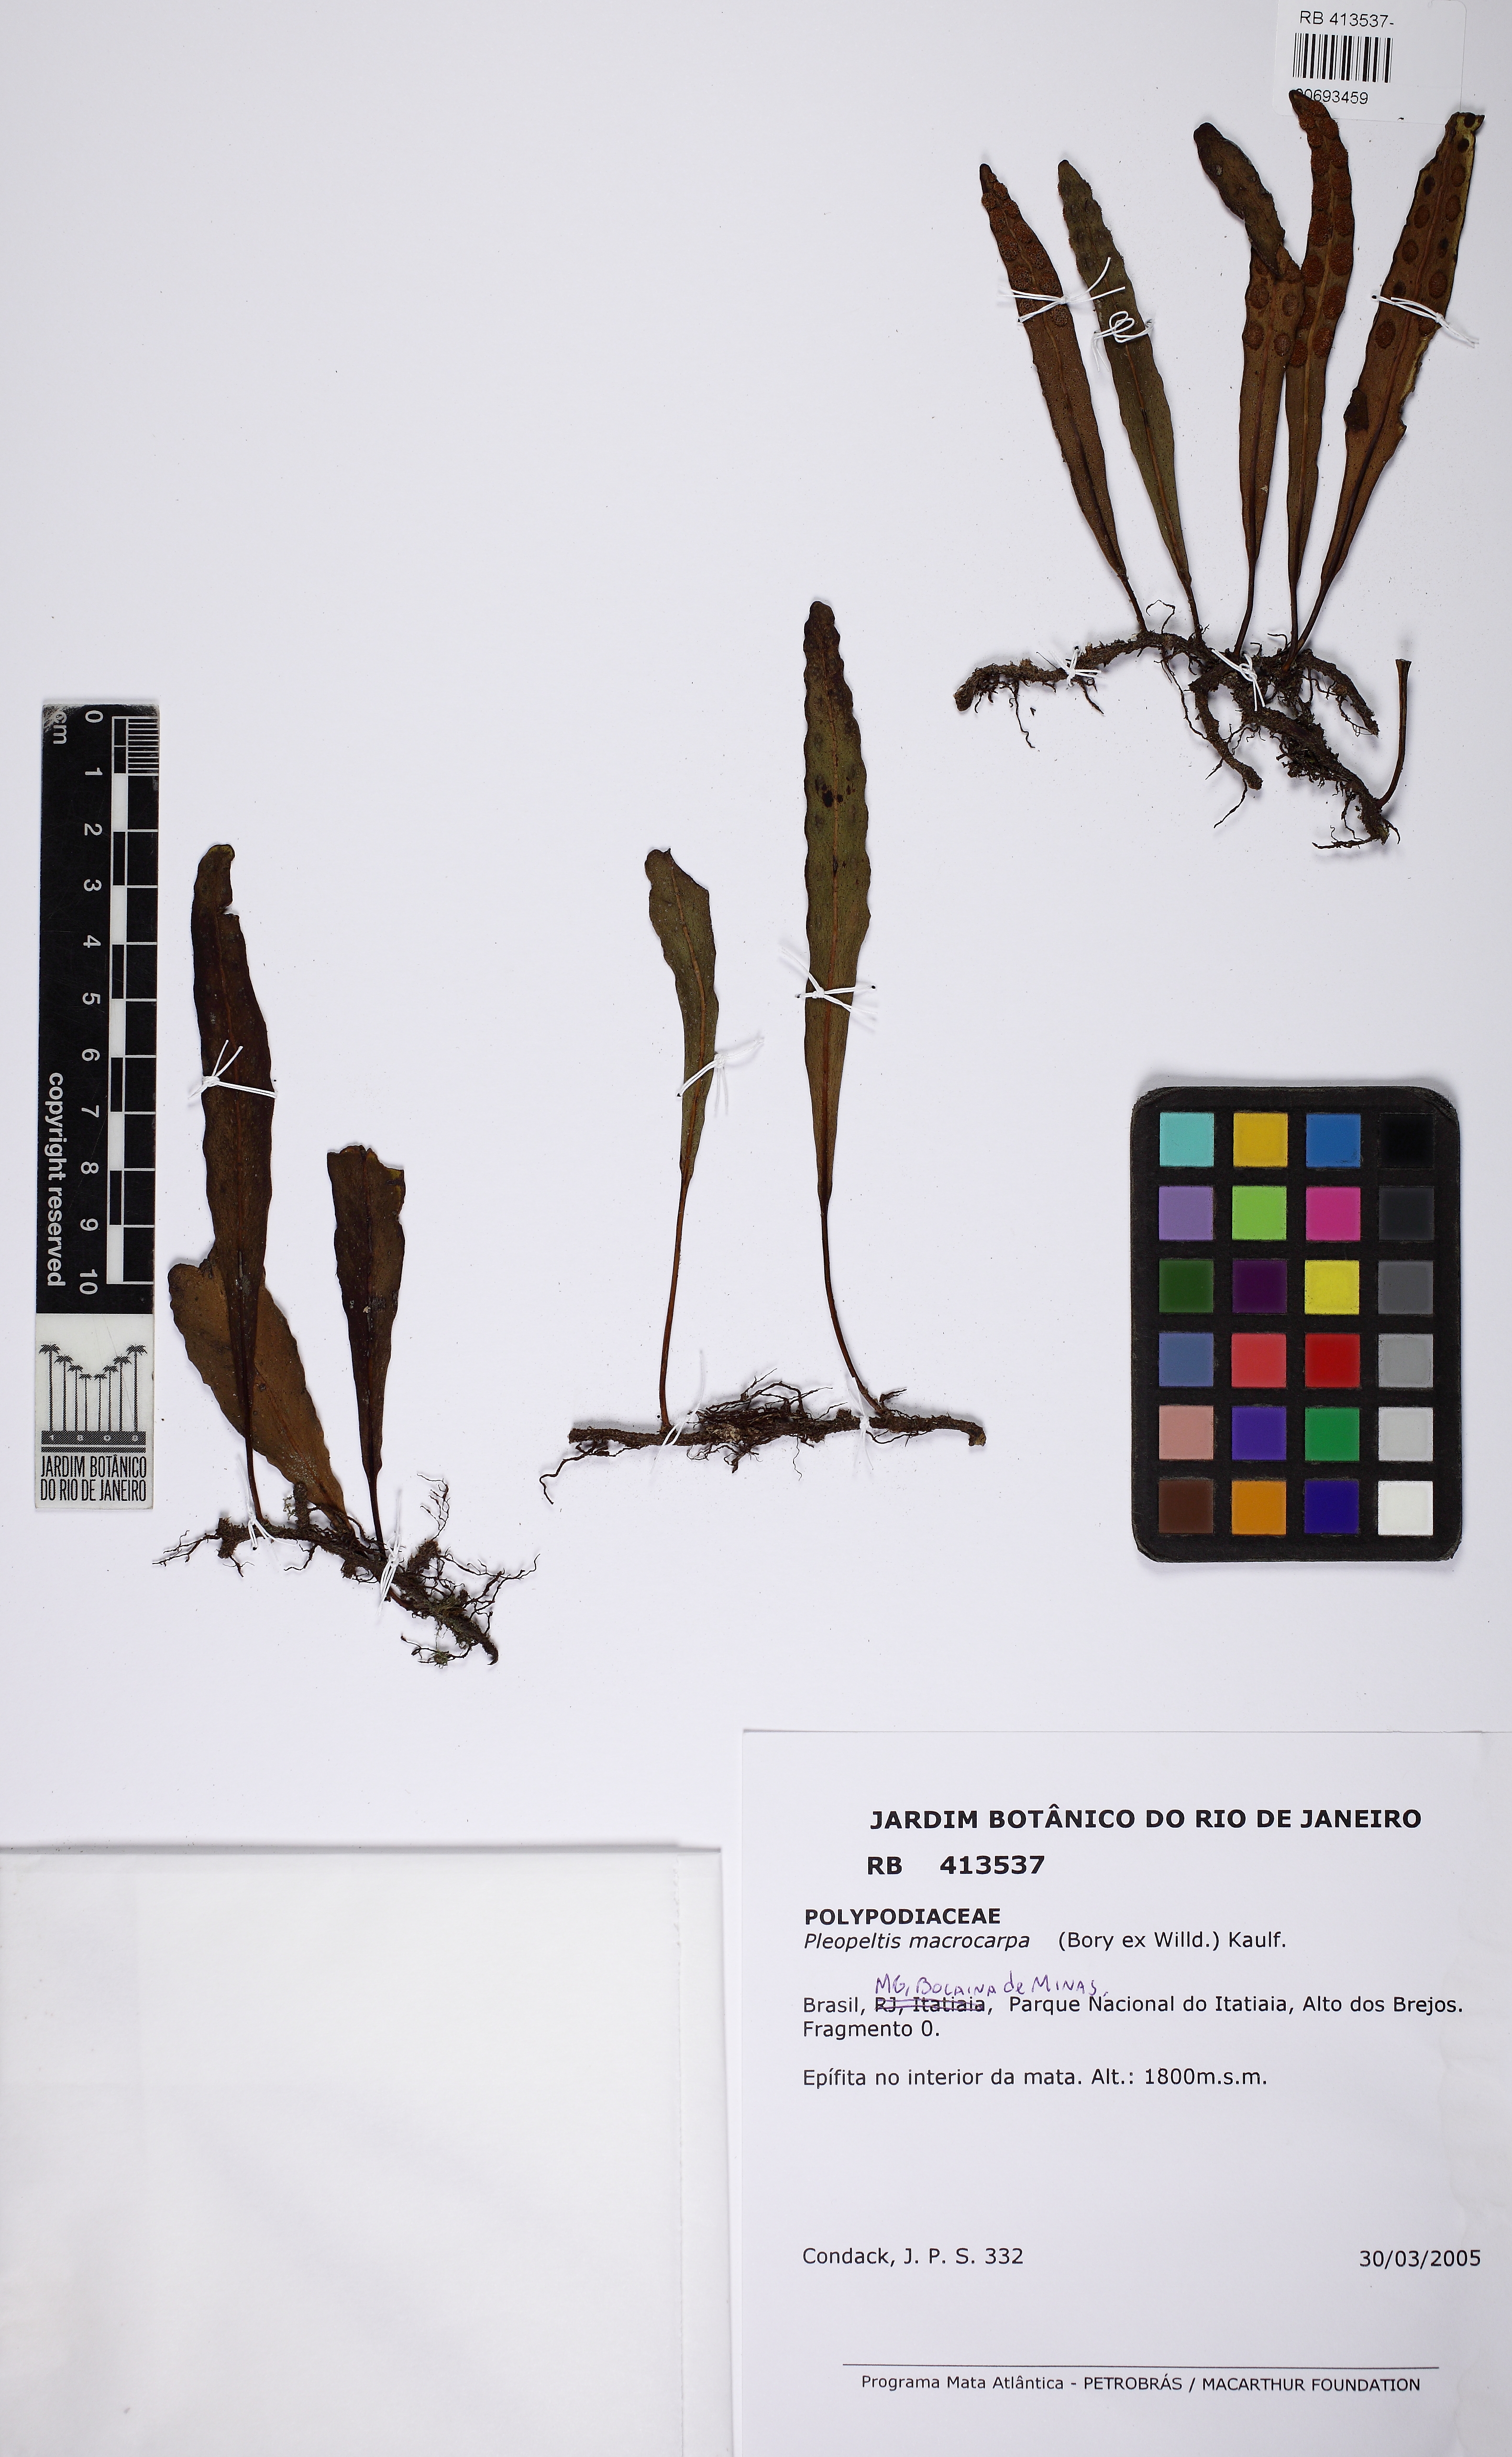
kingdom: Plantae
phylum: Tracheophyta
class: Polypodiopsida
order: Polypodiales
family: Polypodiaceae
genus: Pleopeltis
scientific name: Pleopeltis macrocarpa
